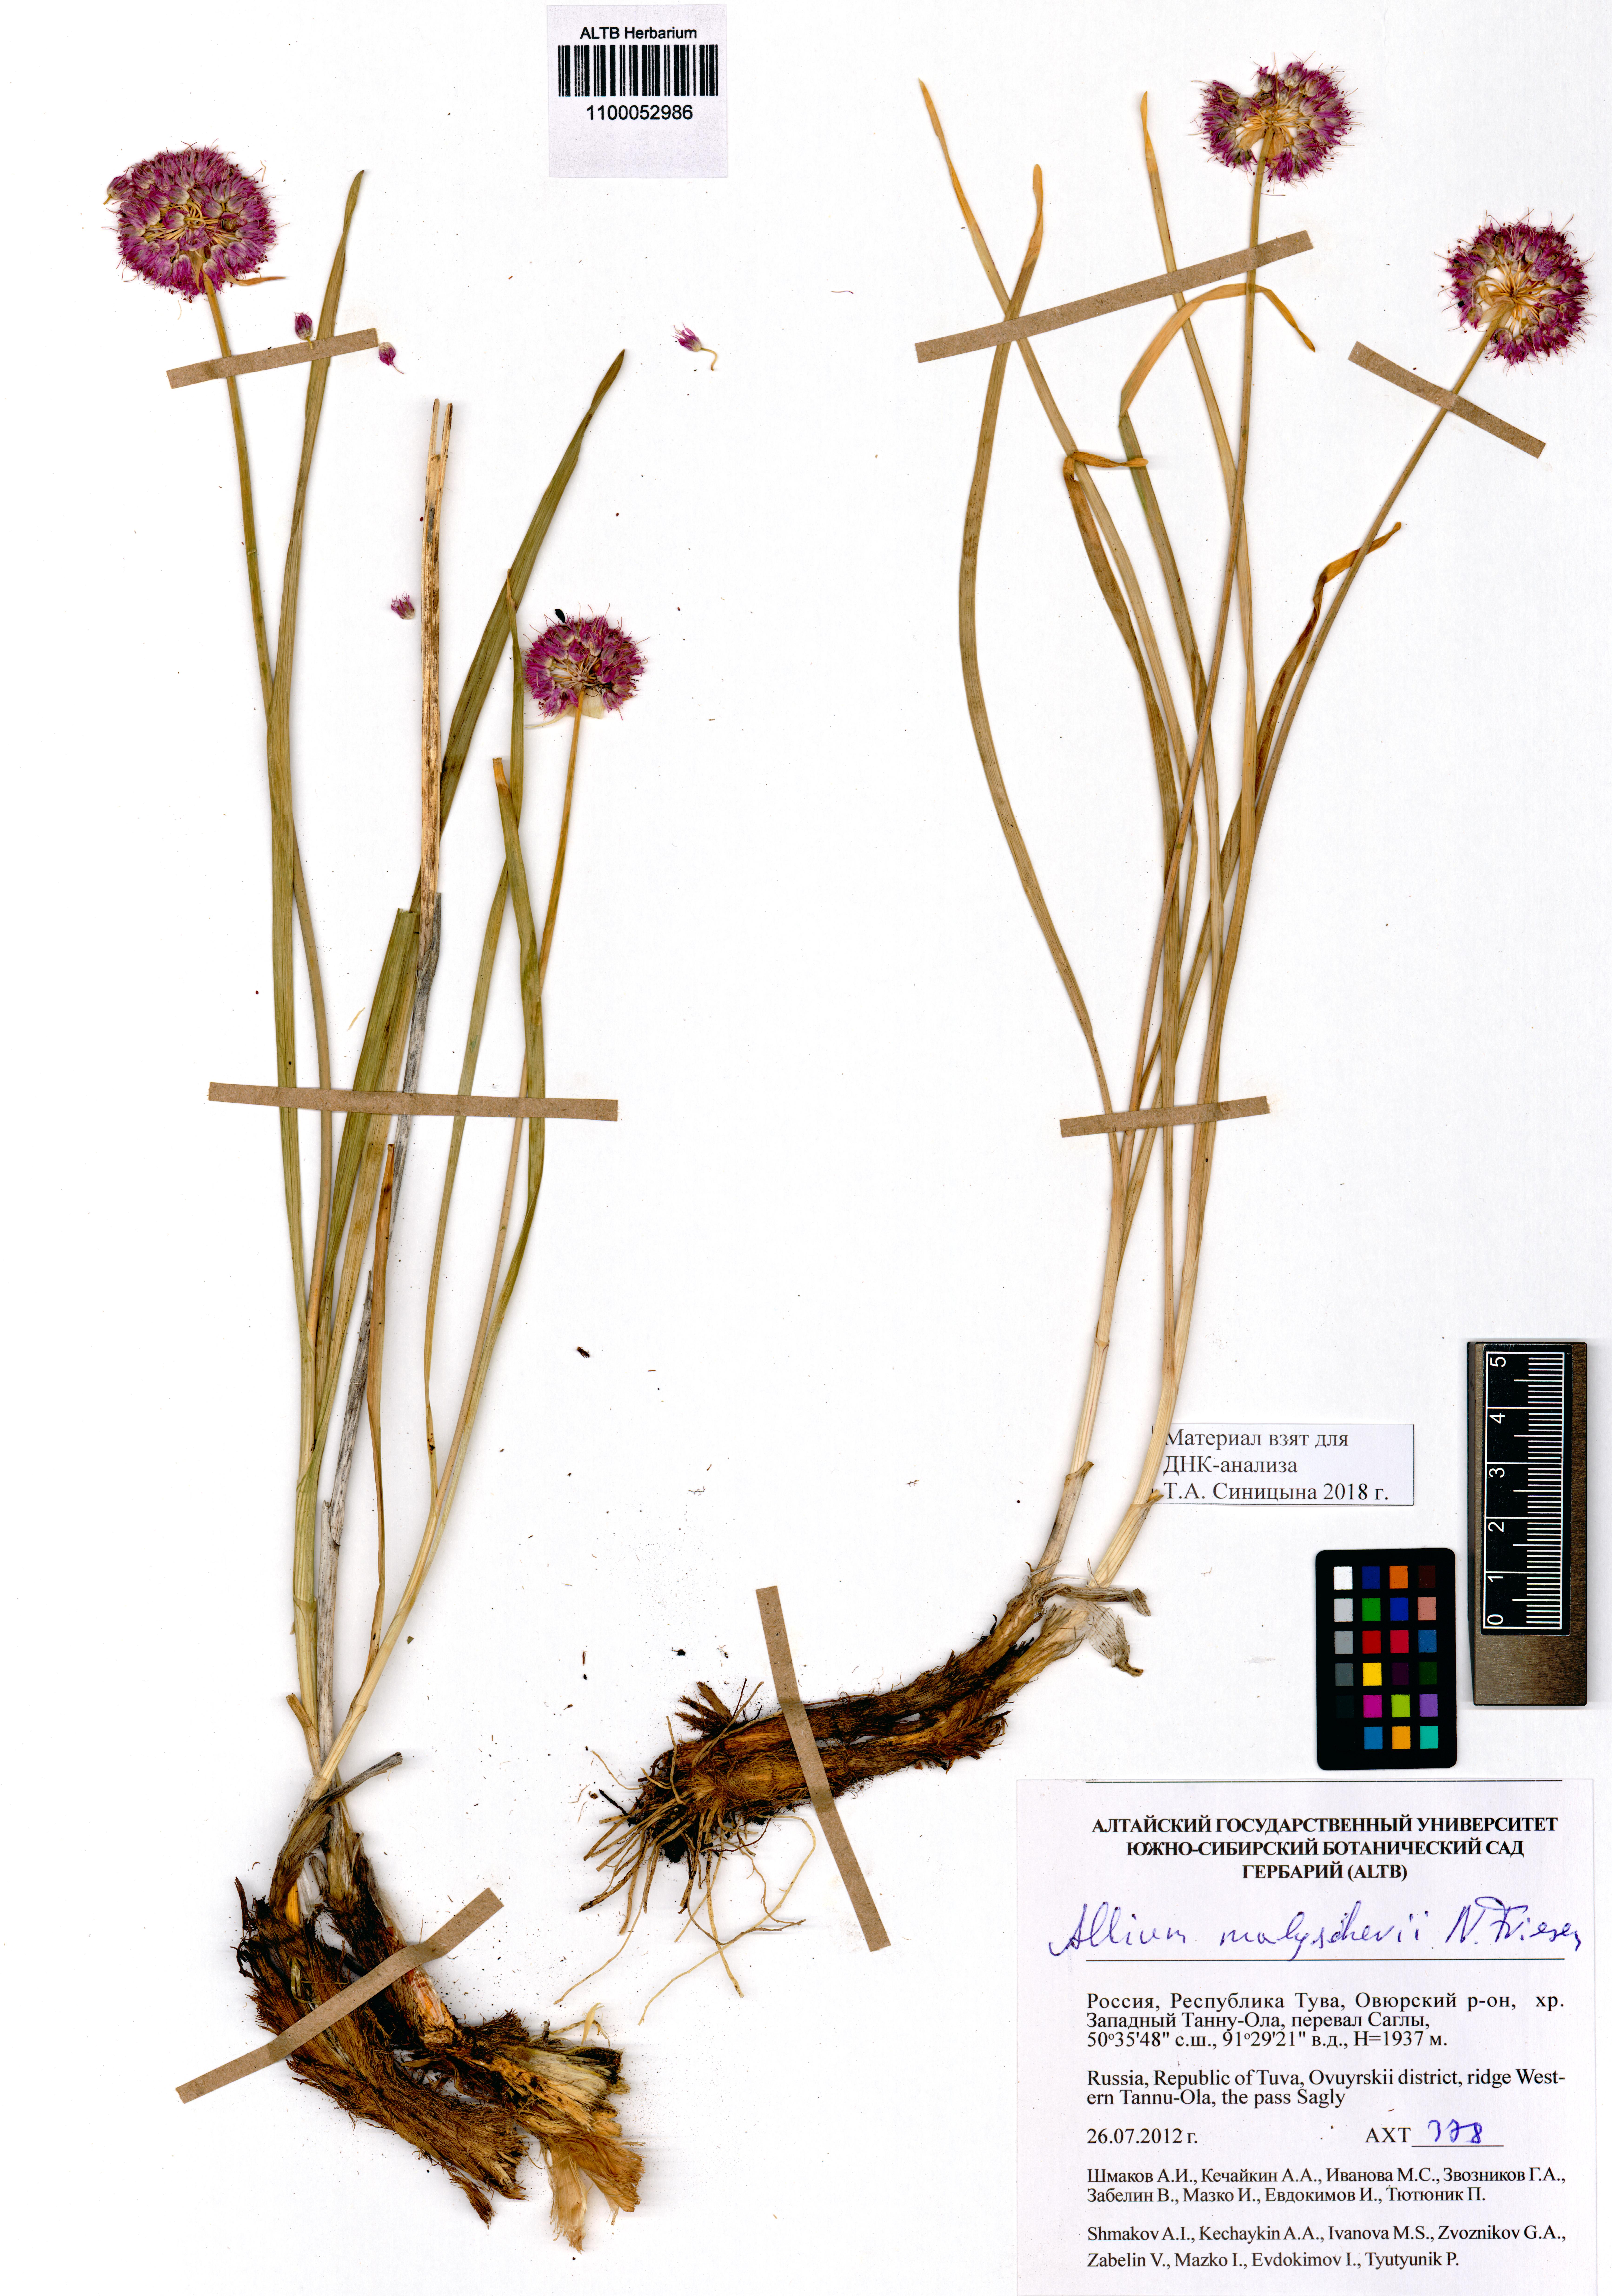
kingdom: Plantae
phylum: Tracheophyta
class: Liliopsida
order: Asparagales
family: Amaryllidaceae
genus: Allium
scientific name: Allium malyschevii
